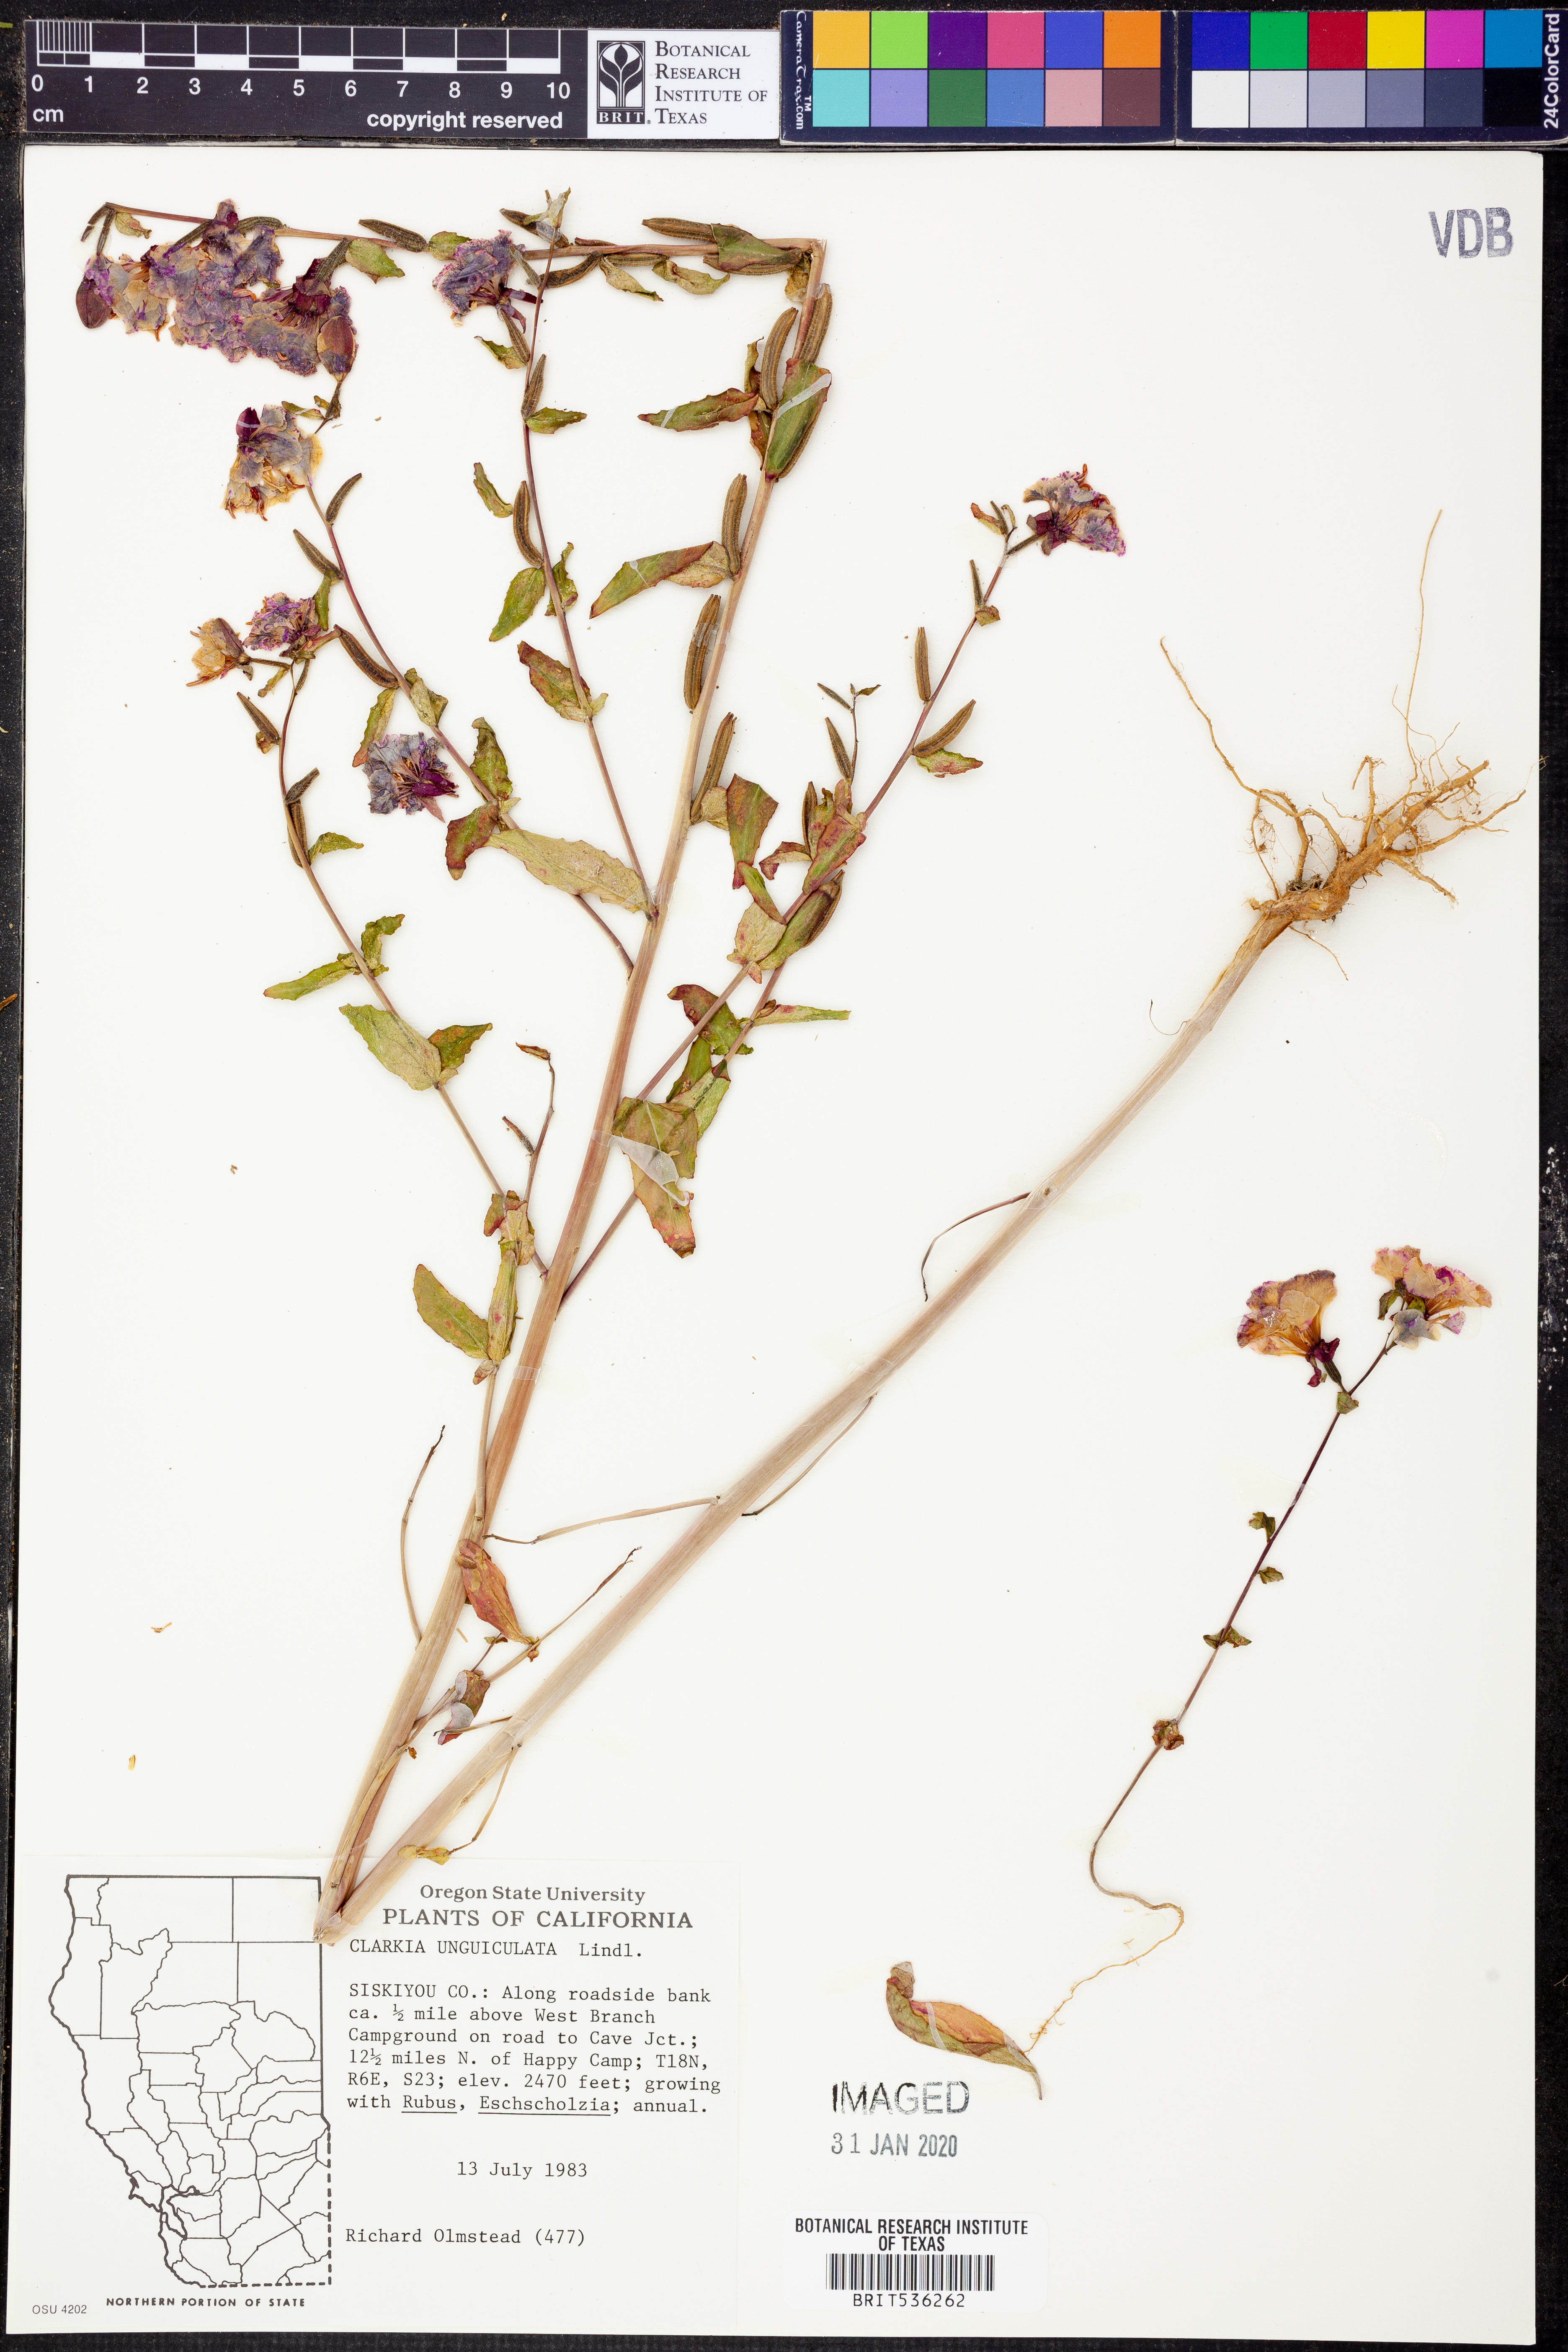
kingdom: Plantae
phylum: Tracheophyta
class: Magnoliopsida
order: Myrtales
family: Onagraceae
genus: Clarkia
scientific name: Clarkia unguiculata
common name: Clarkia
